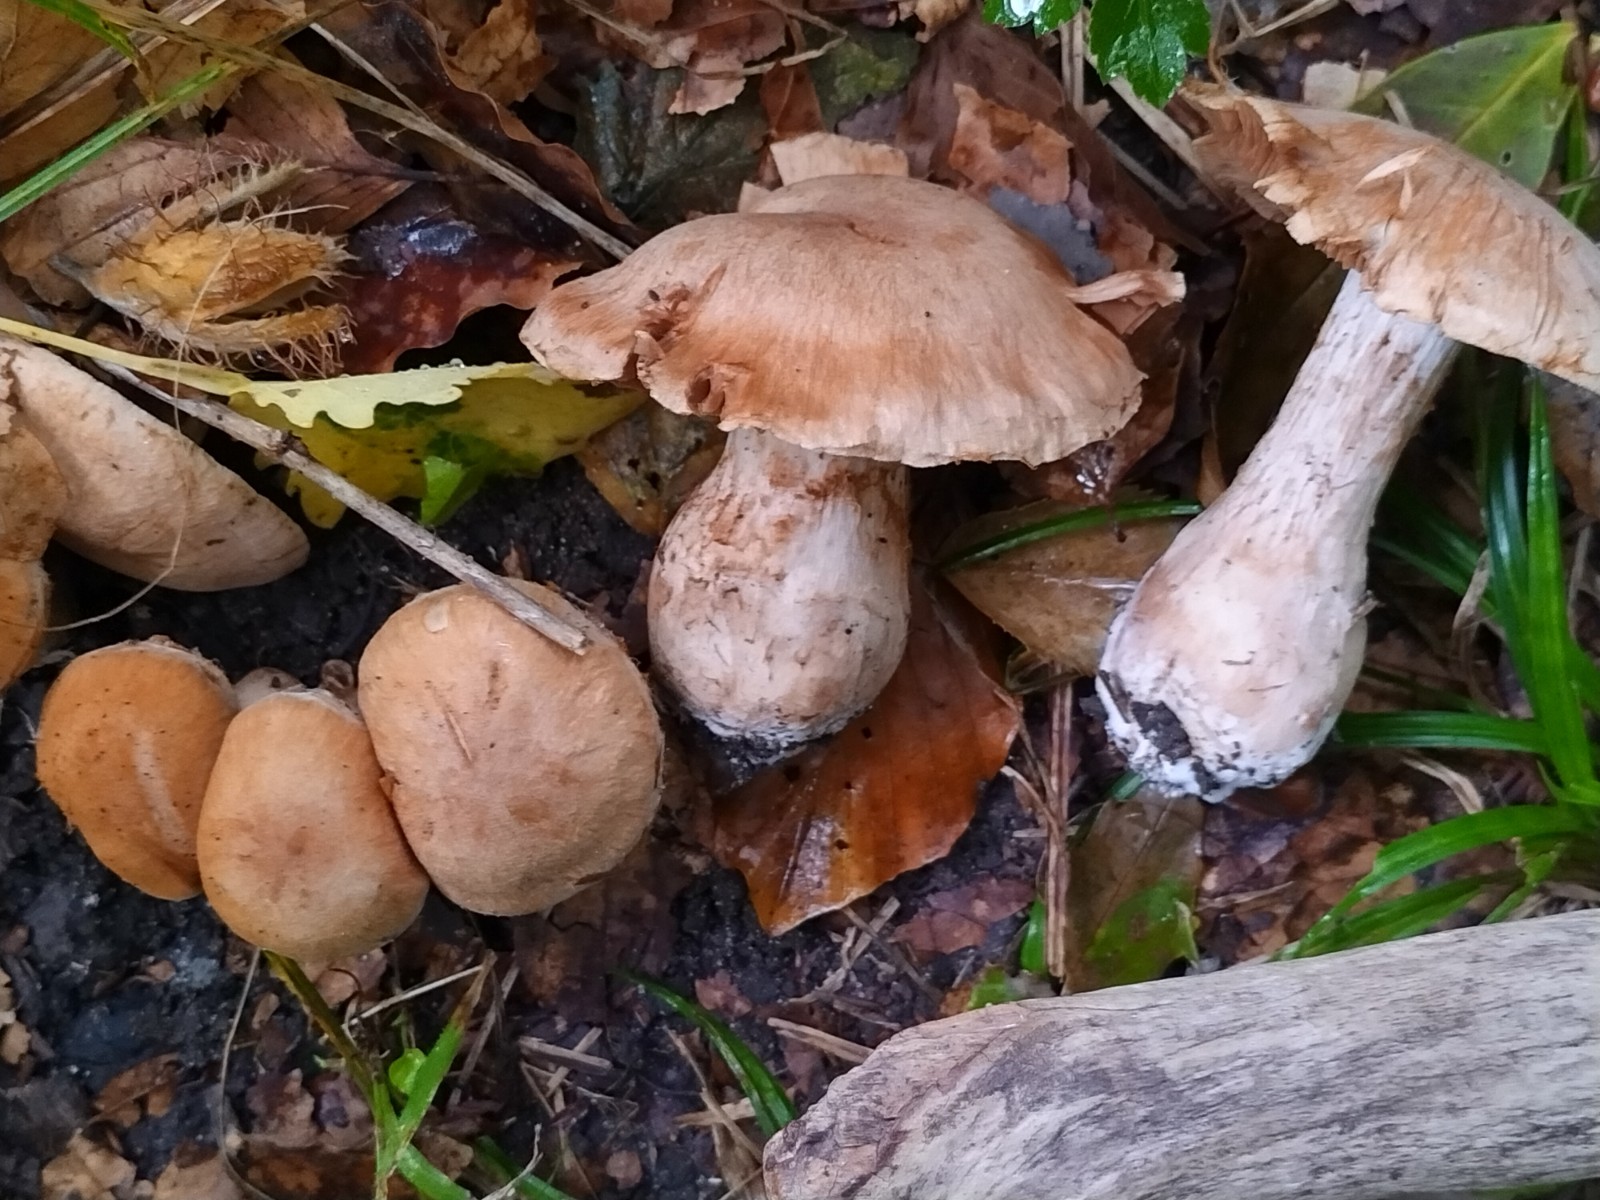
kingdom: Fungi
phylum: Basidiomycota
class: Agaricomycetes
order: Agaricales
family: Cortinariaceae
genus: Cortinarius
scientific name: Cortinarius
